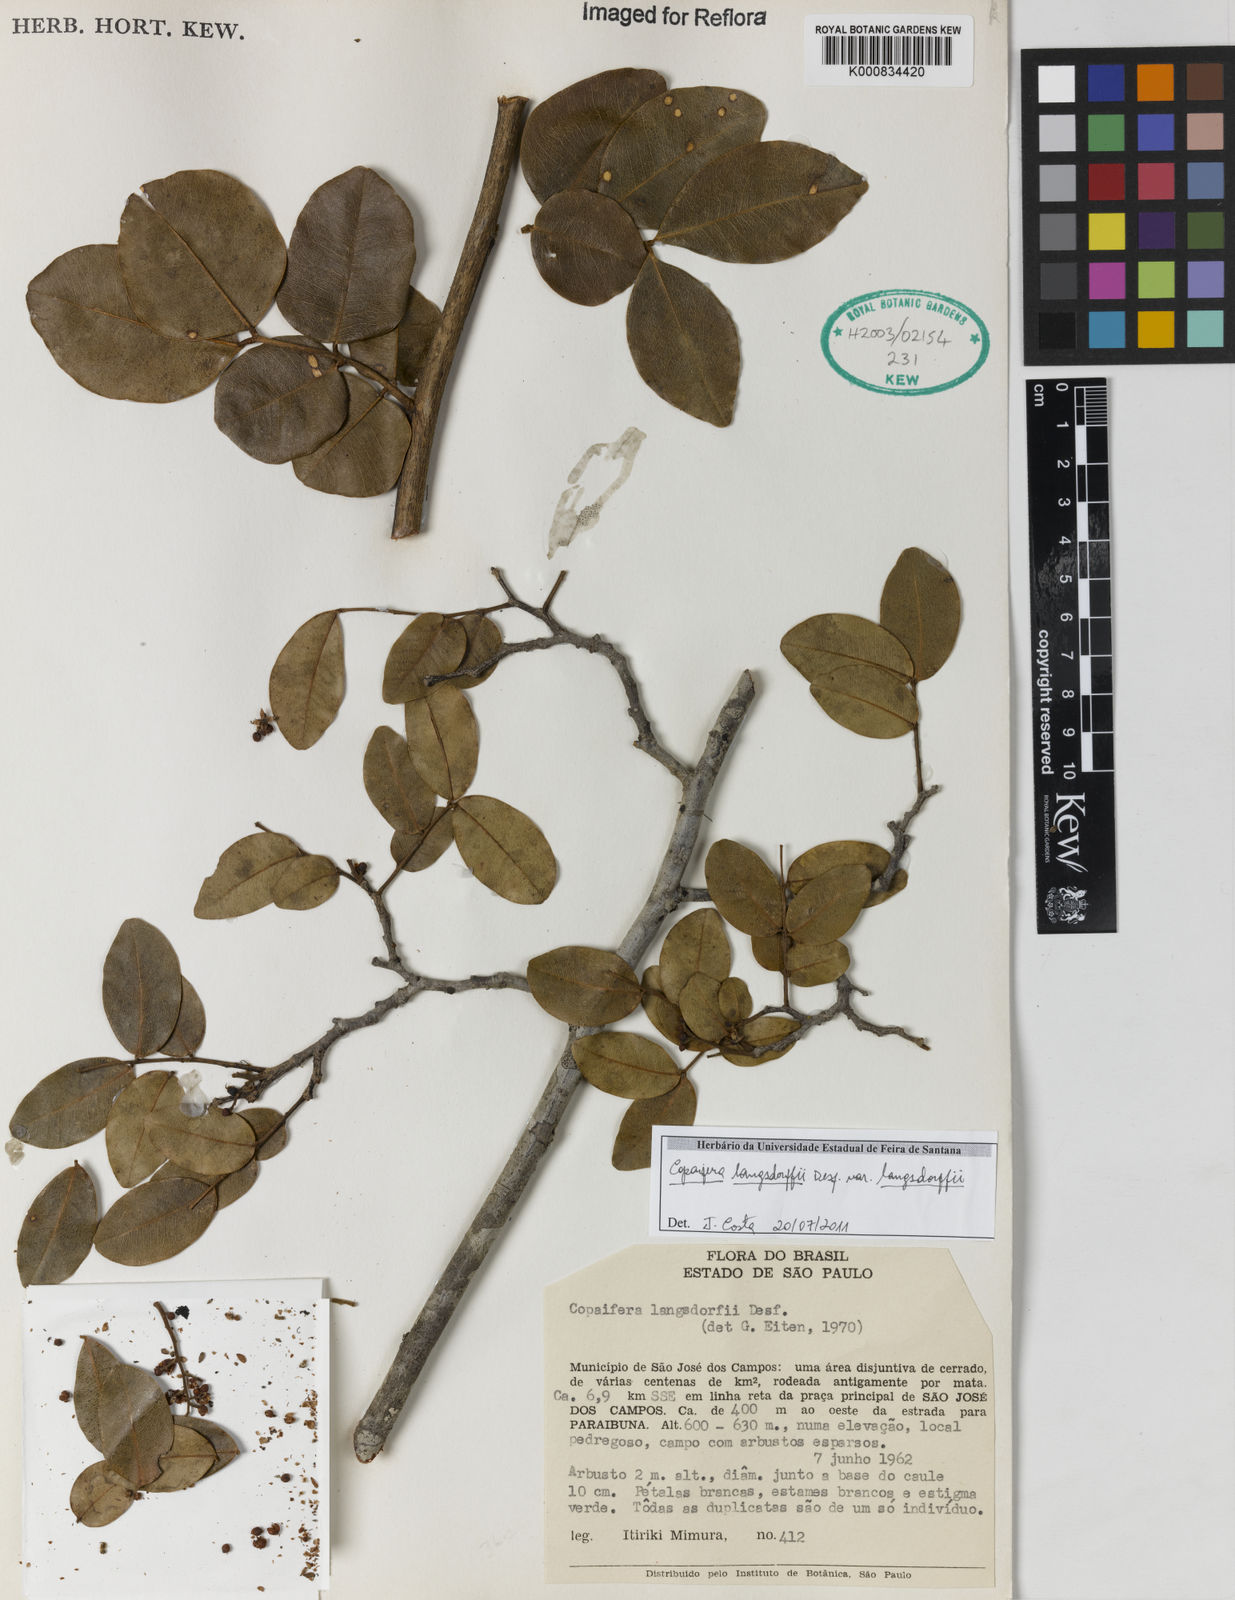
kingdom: Plantae
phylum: Tracheophyta
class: Magnoliopsida
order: Fabales
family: Fabaceae
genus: Copaifera
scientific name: Copaifera langsdorffii
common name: Brazilian diesel tree
